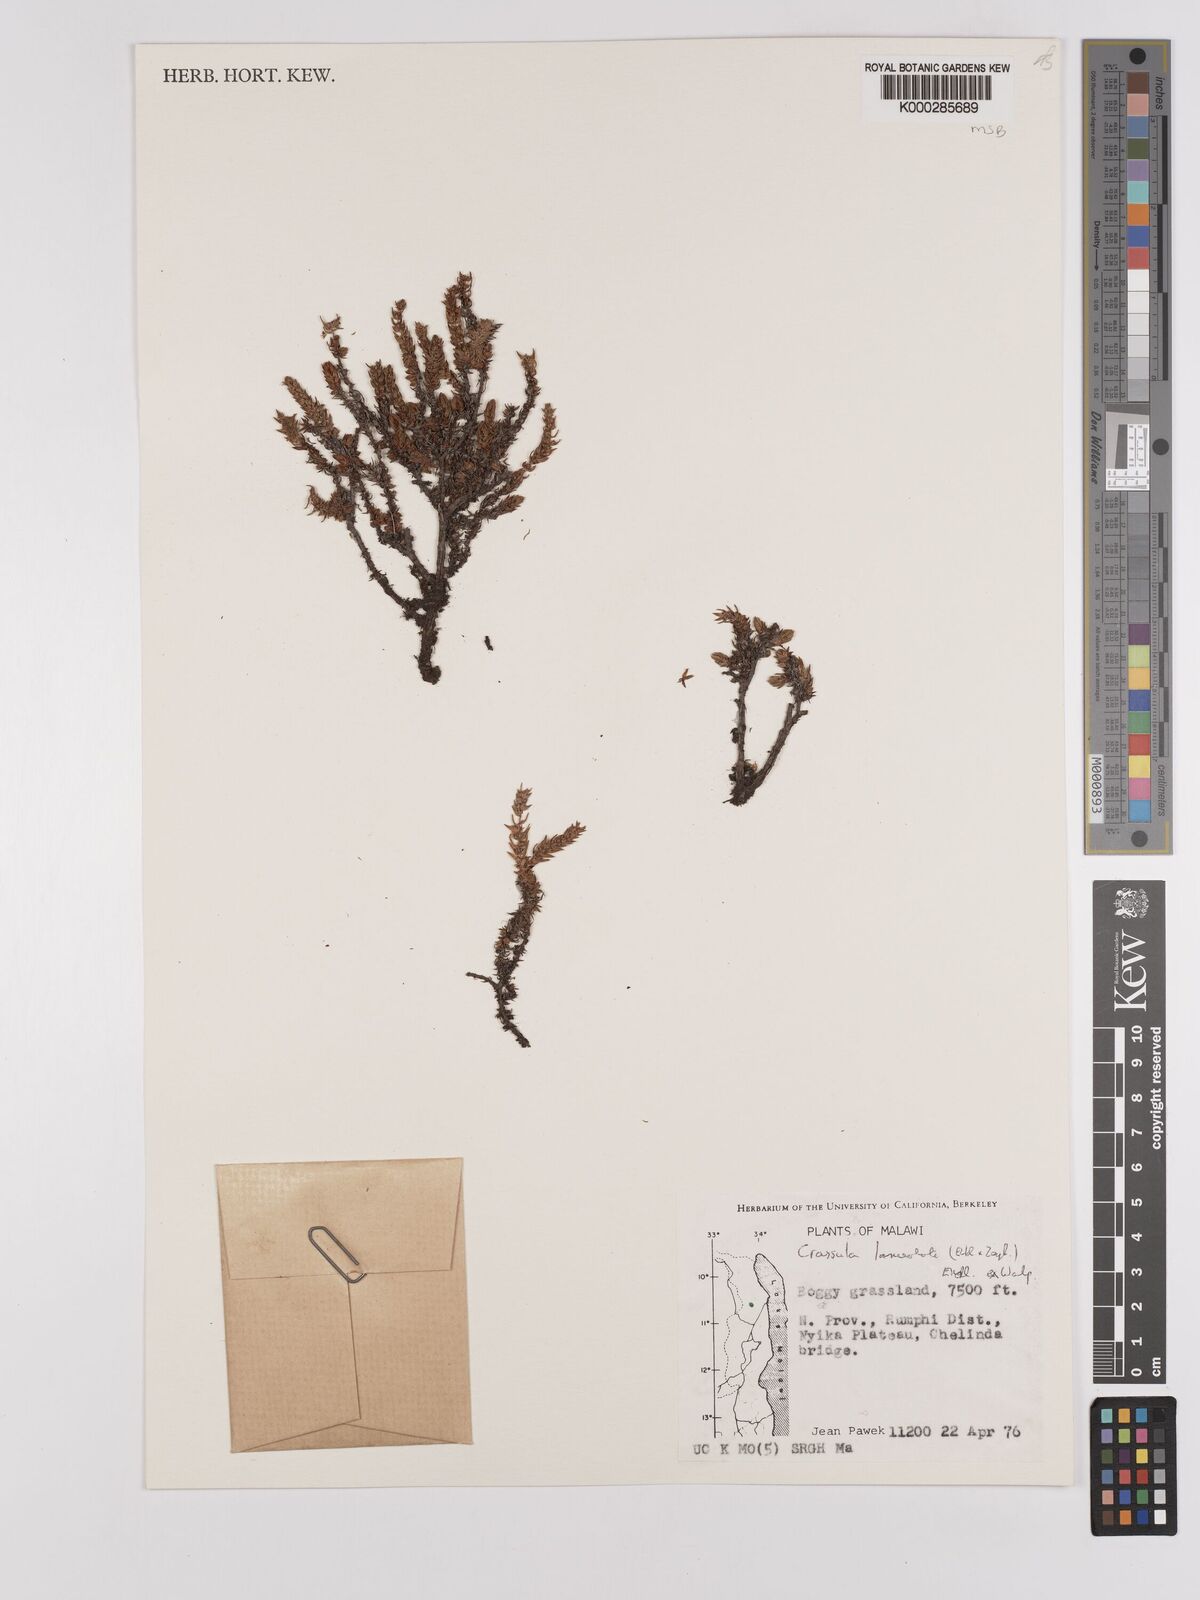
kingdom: Plantae
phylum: Tracheophyta
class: Magnoliopsida
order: Saxifragales
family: Crassulaceae
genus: Crassula
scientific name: Crassula lanceolata
